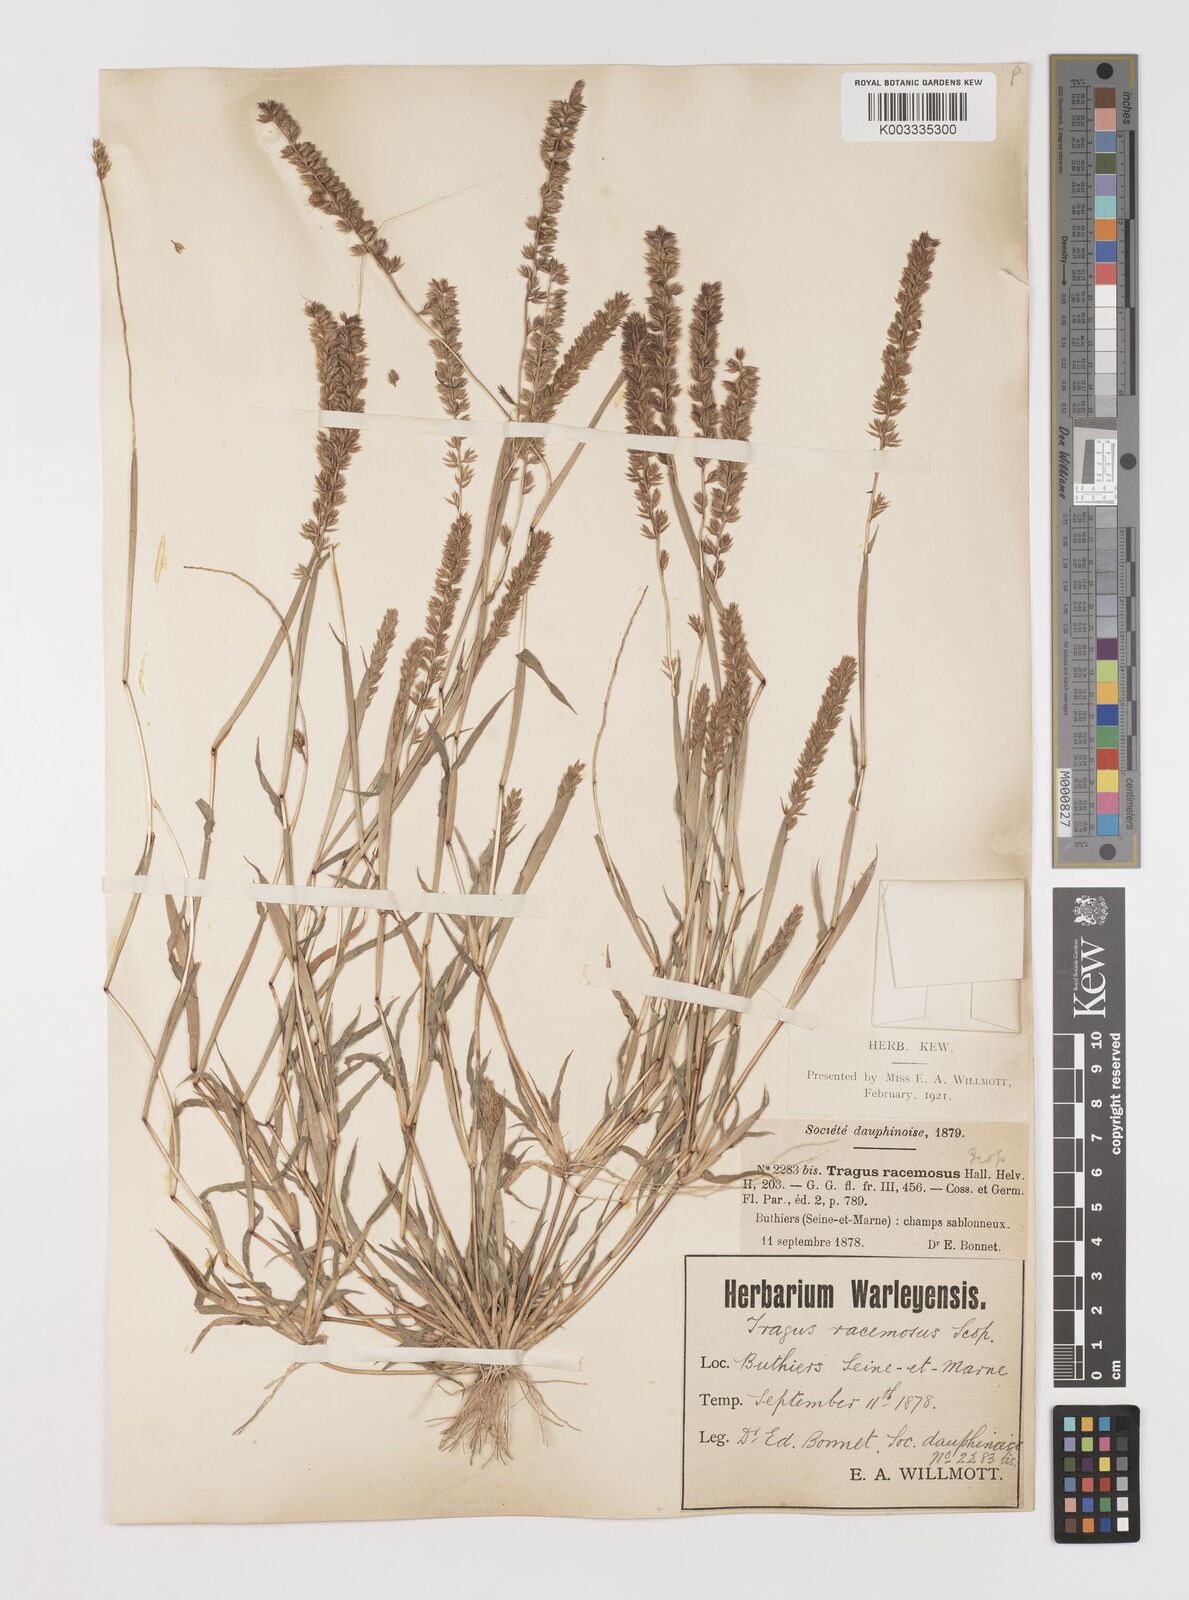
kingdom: Plantae
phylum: Tracheophyta
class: Liliopsida
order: Poales
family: Poaceae
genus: Tragus
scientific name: Tragus racemosus
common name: European bur-grass
